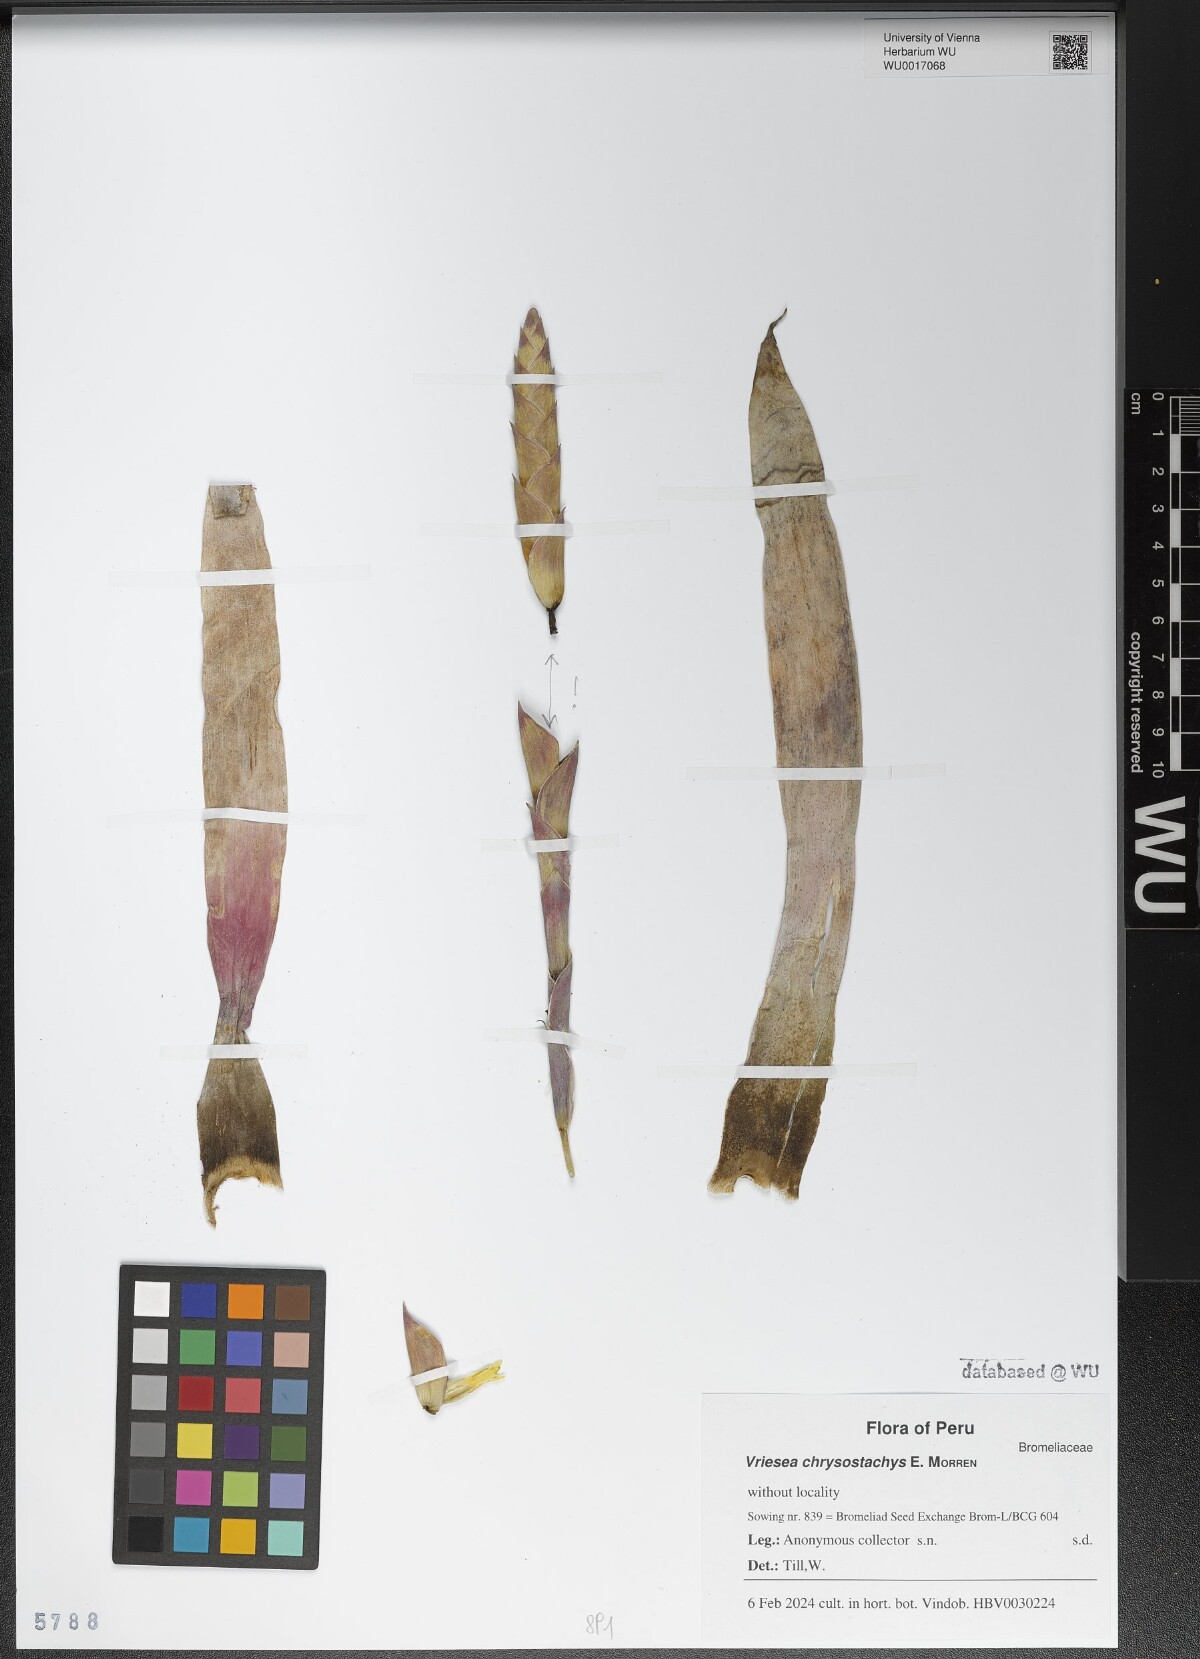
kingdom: Plantae
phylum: Tracheophyta
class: Liliopsida
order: Poales
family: Bromeliaceae
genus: Goudaea
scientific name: Goudaea chrysostachys
